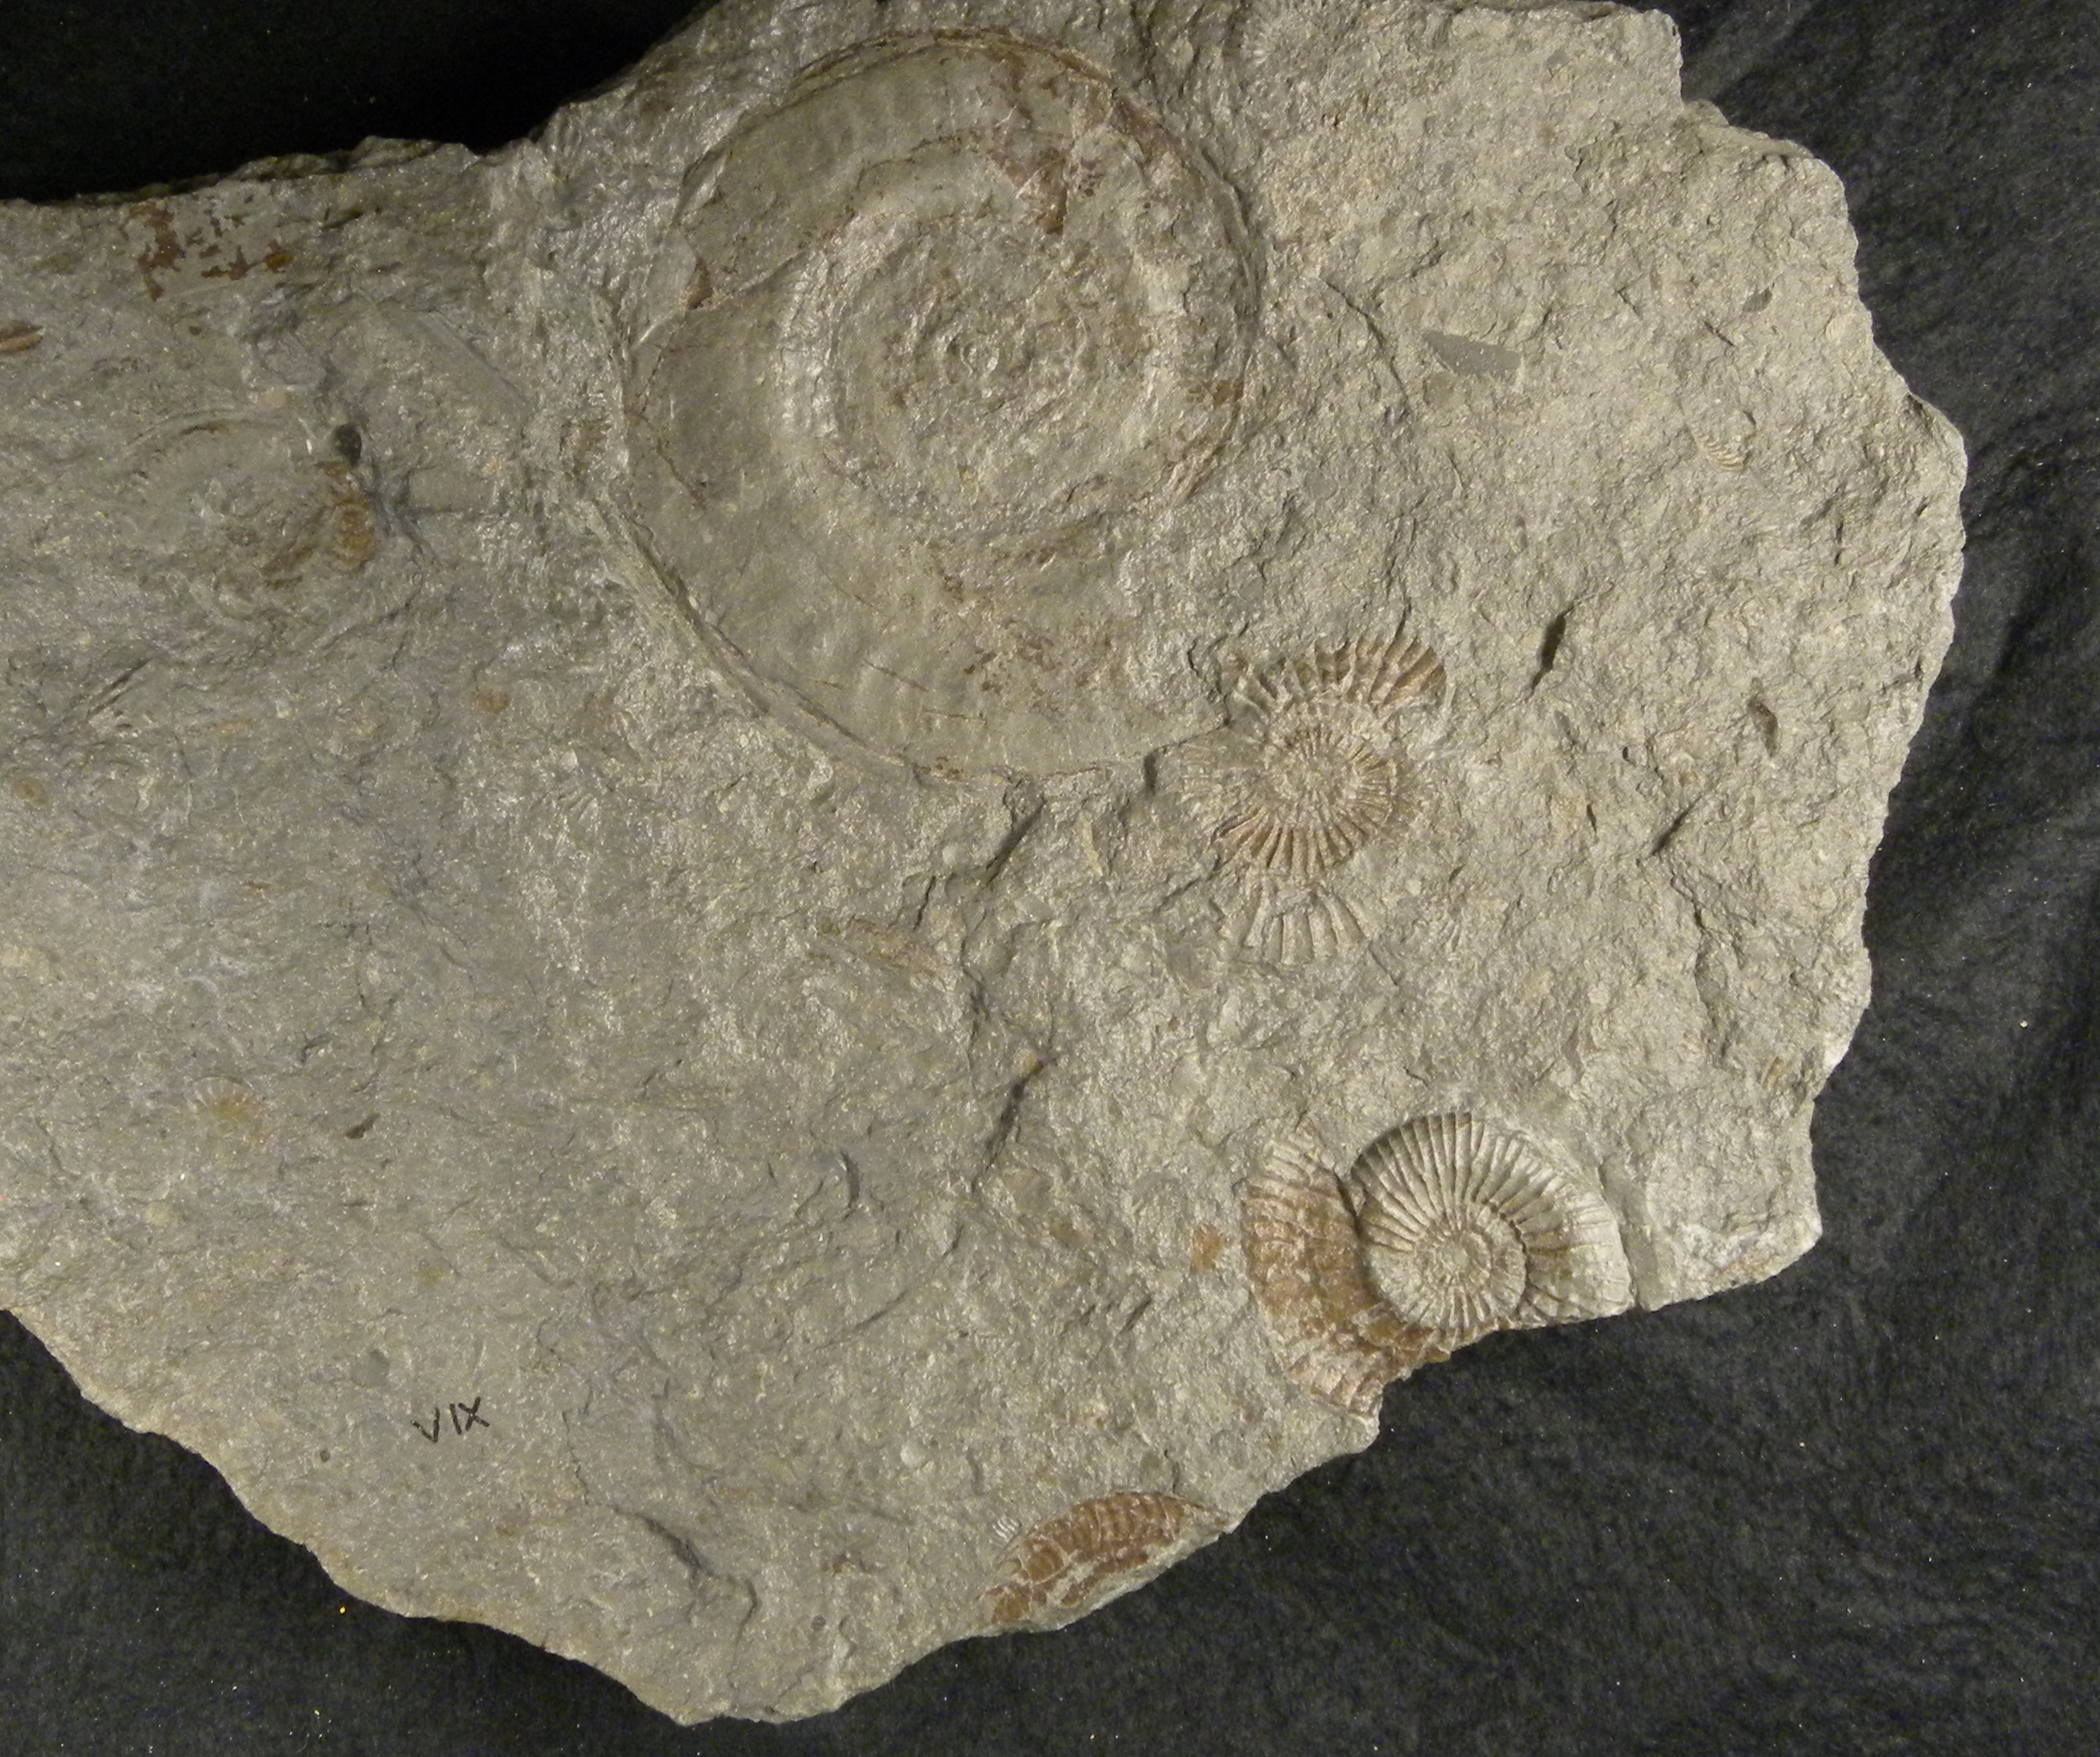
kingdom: Animalia
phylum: Mollusca
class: Cephalopoda
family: Hildoceratidae
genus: Hildoceras
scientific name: Hildoceras bifrons
